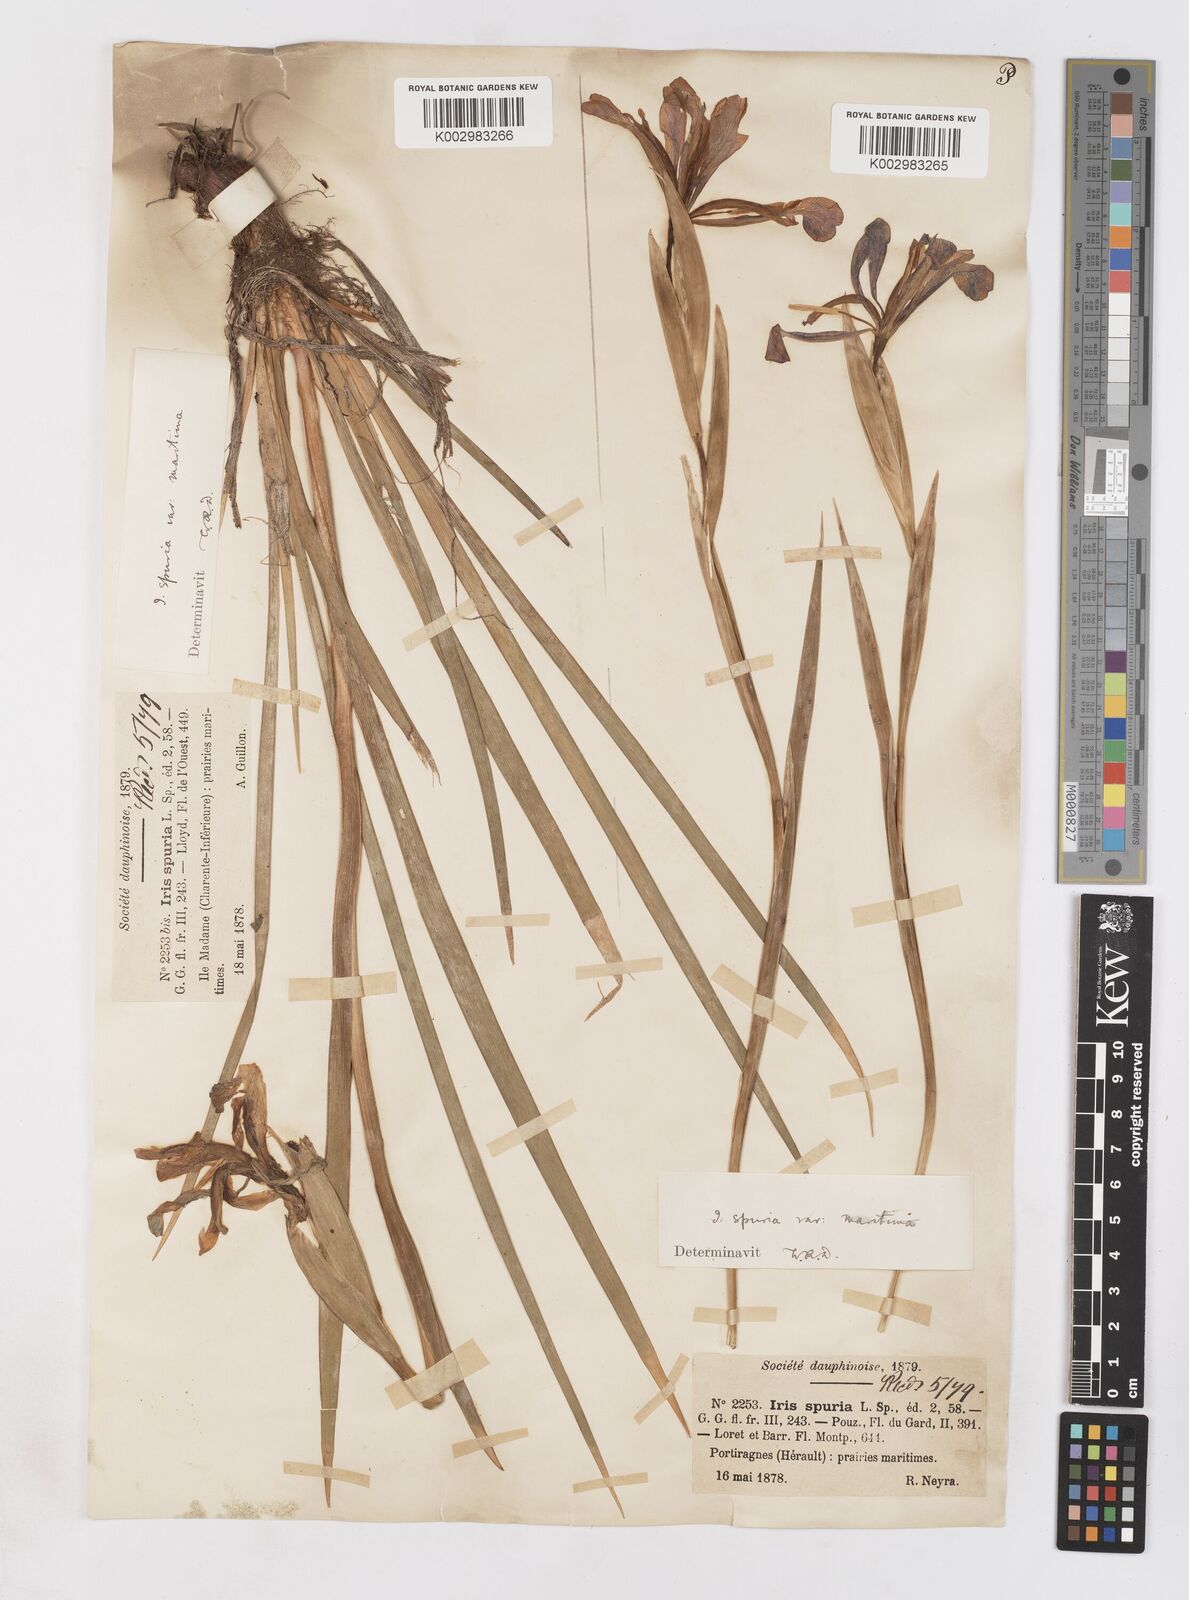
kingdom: Plantae
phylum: Tracheophyta
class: Liliopsida
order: Asparagales
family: Iridaceae
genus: Iris
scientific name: Iris spuria
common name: Blue iris
